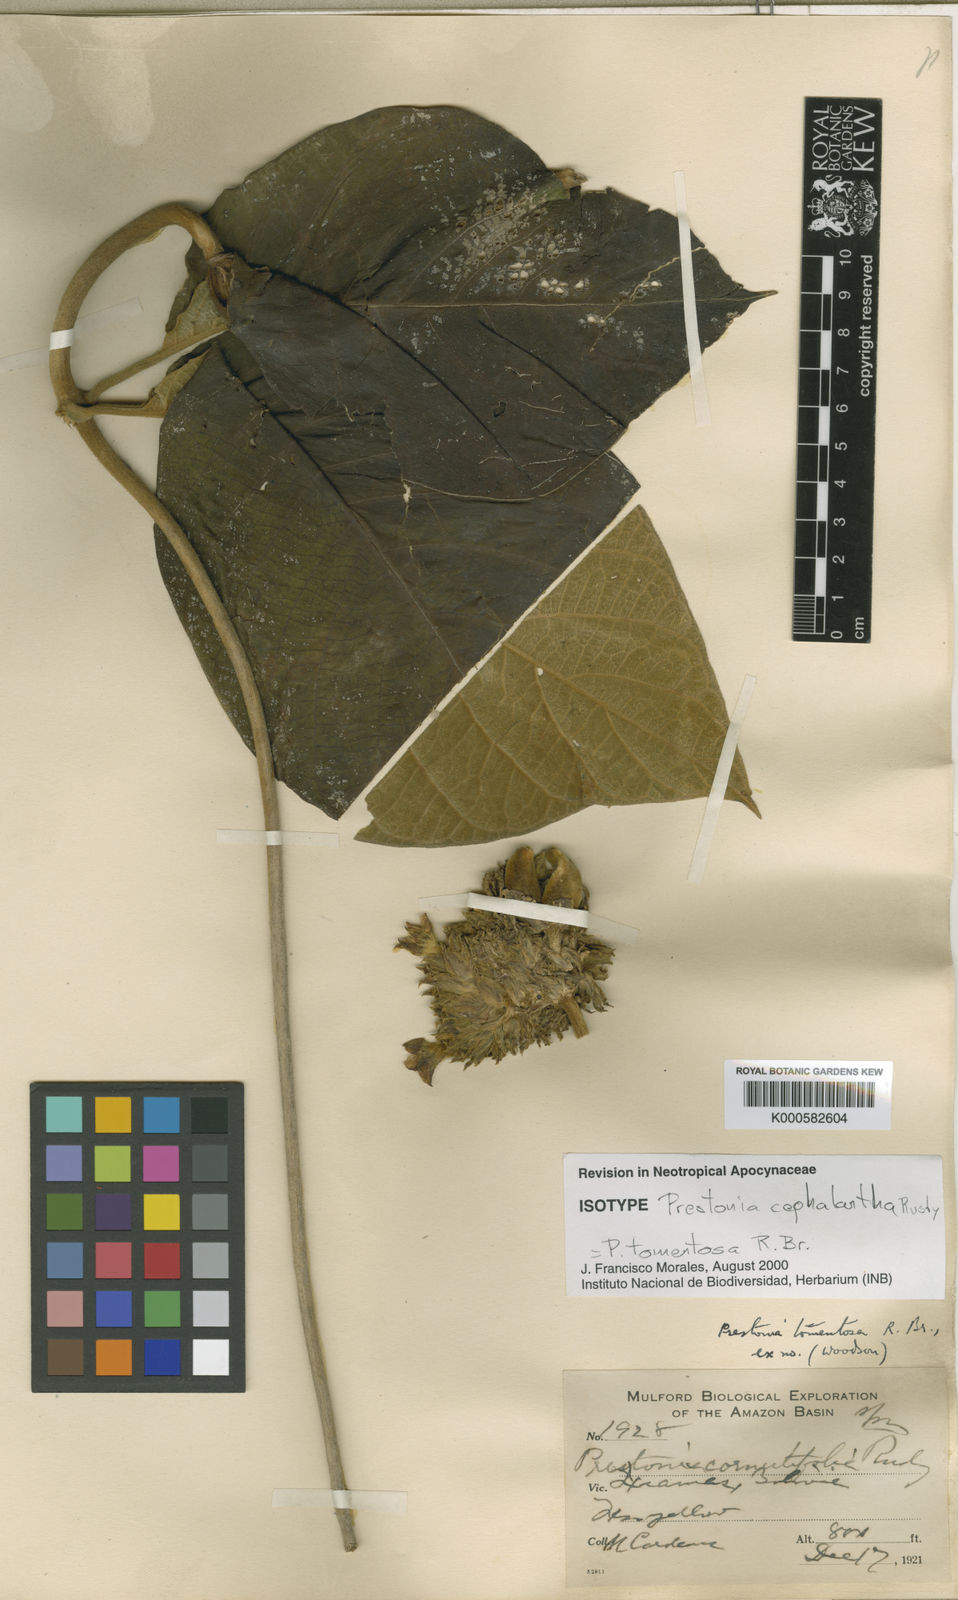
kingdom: Plantae
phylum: Tracheophyta
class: Magnoliopsida
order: Gentianales
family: Apocynaceae
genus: Prestonia
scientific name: Prestonia tomentosa
